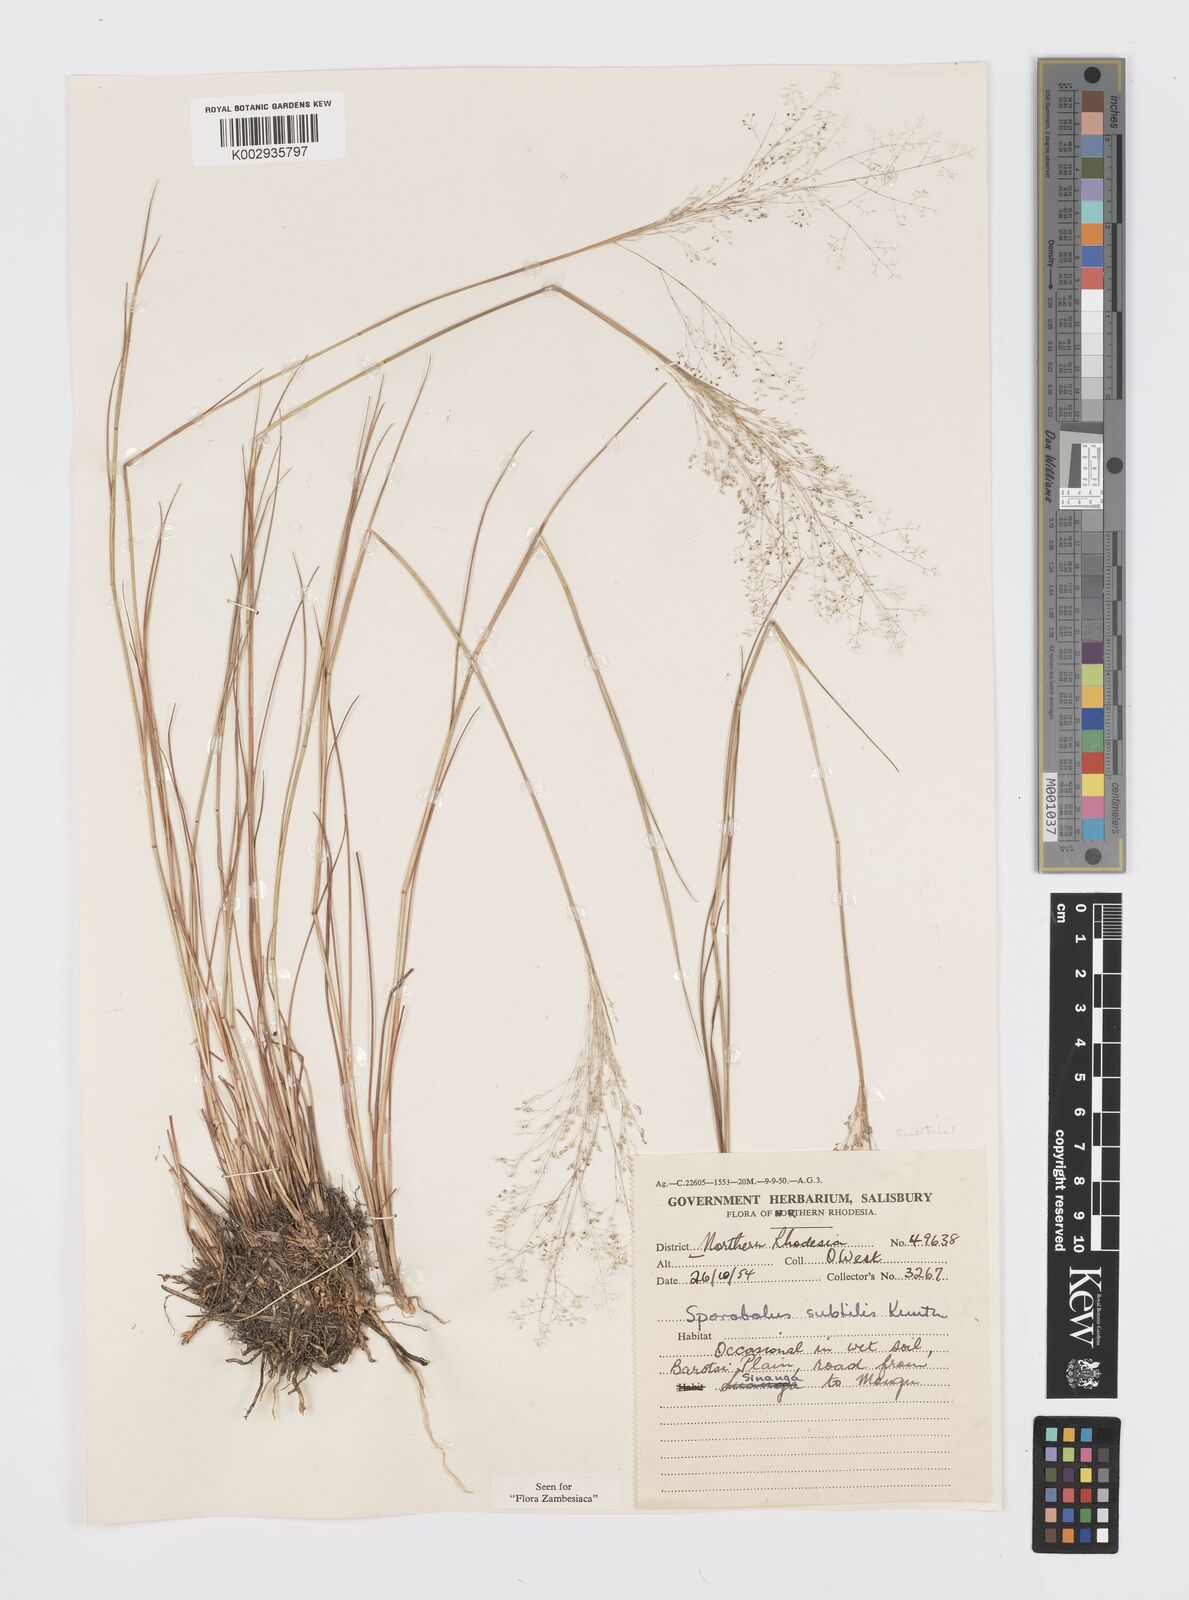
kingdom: Plantae
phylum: Tracheophyta
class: Liliopsida
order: Poales
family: Poaceae
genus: Sporobolus
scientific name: Sporobolus subtilis
